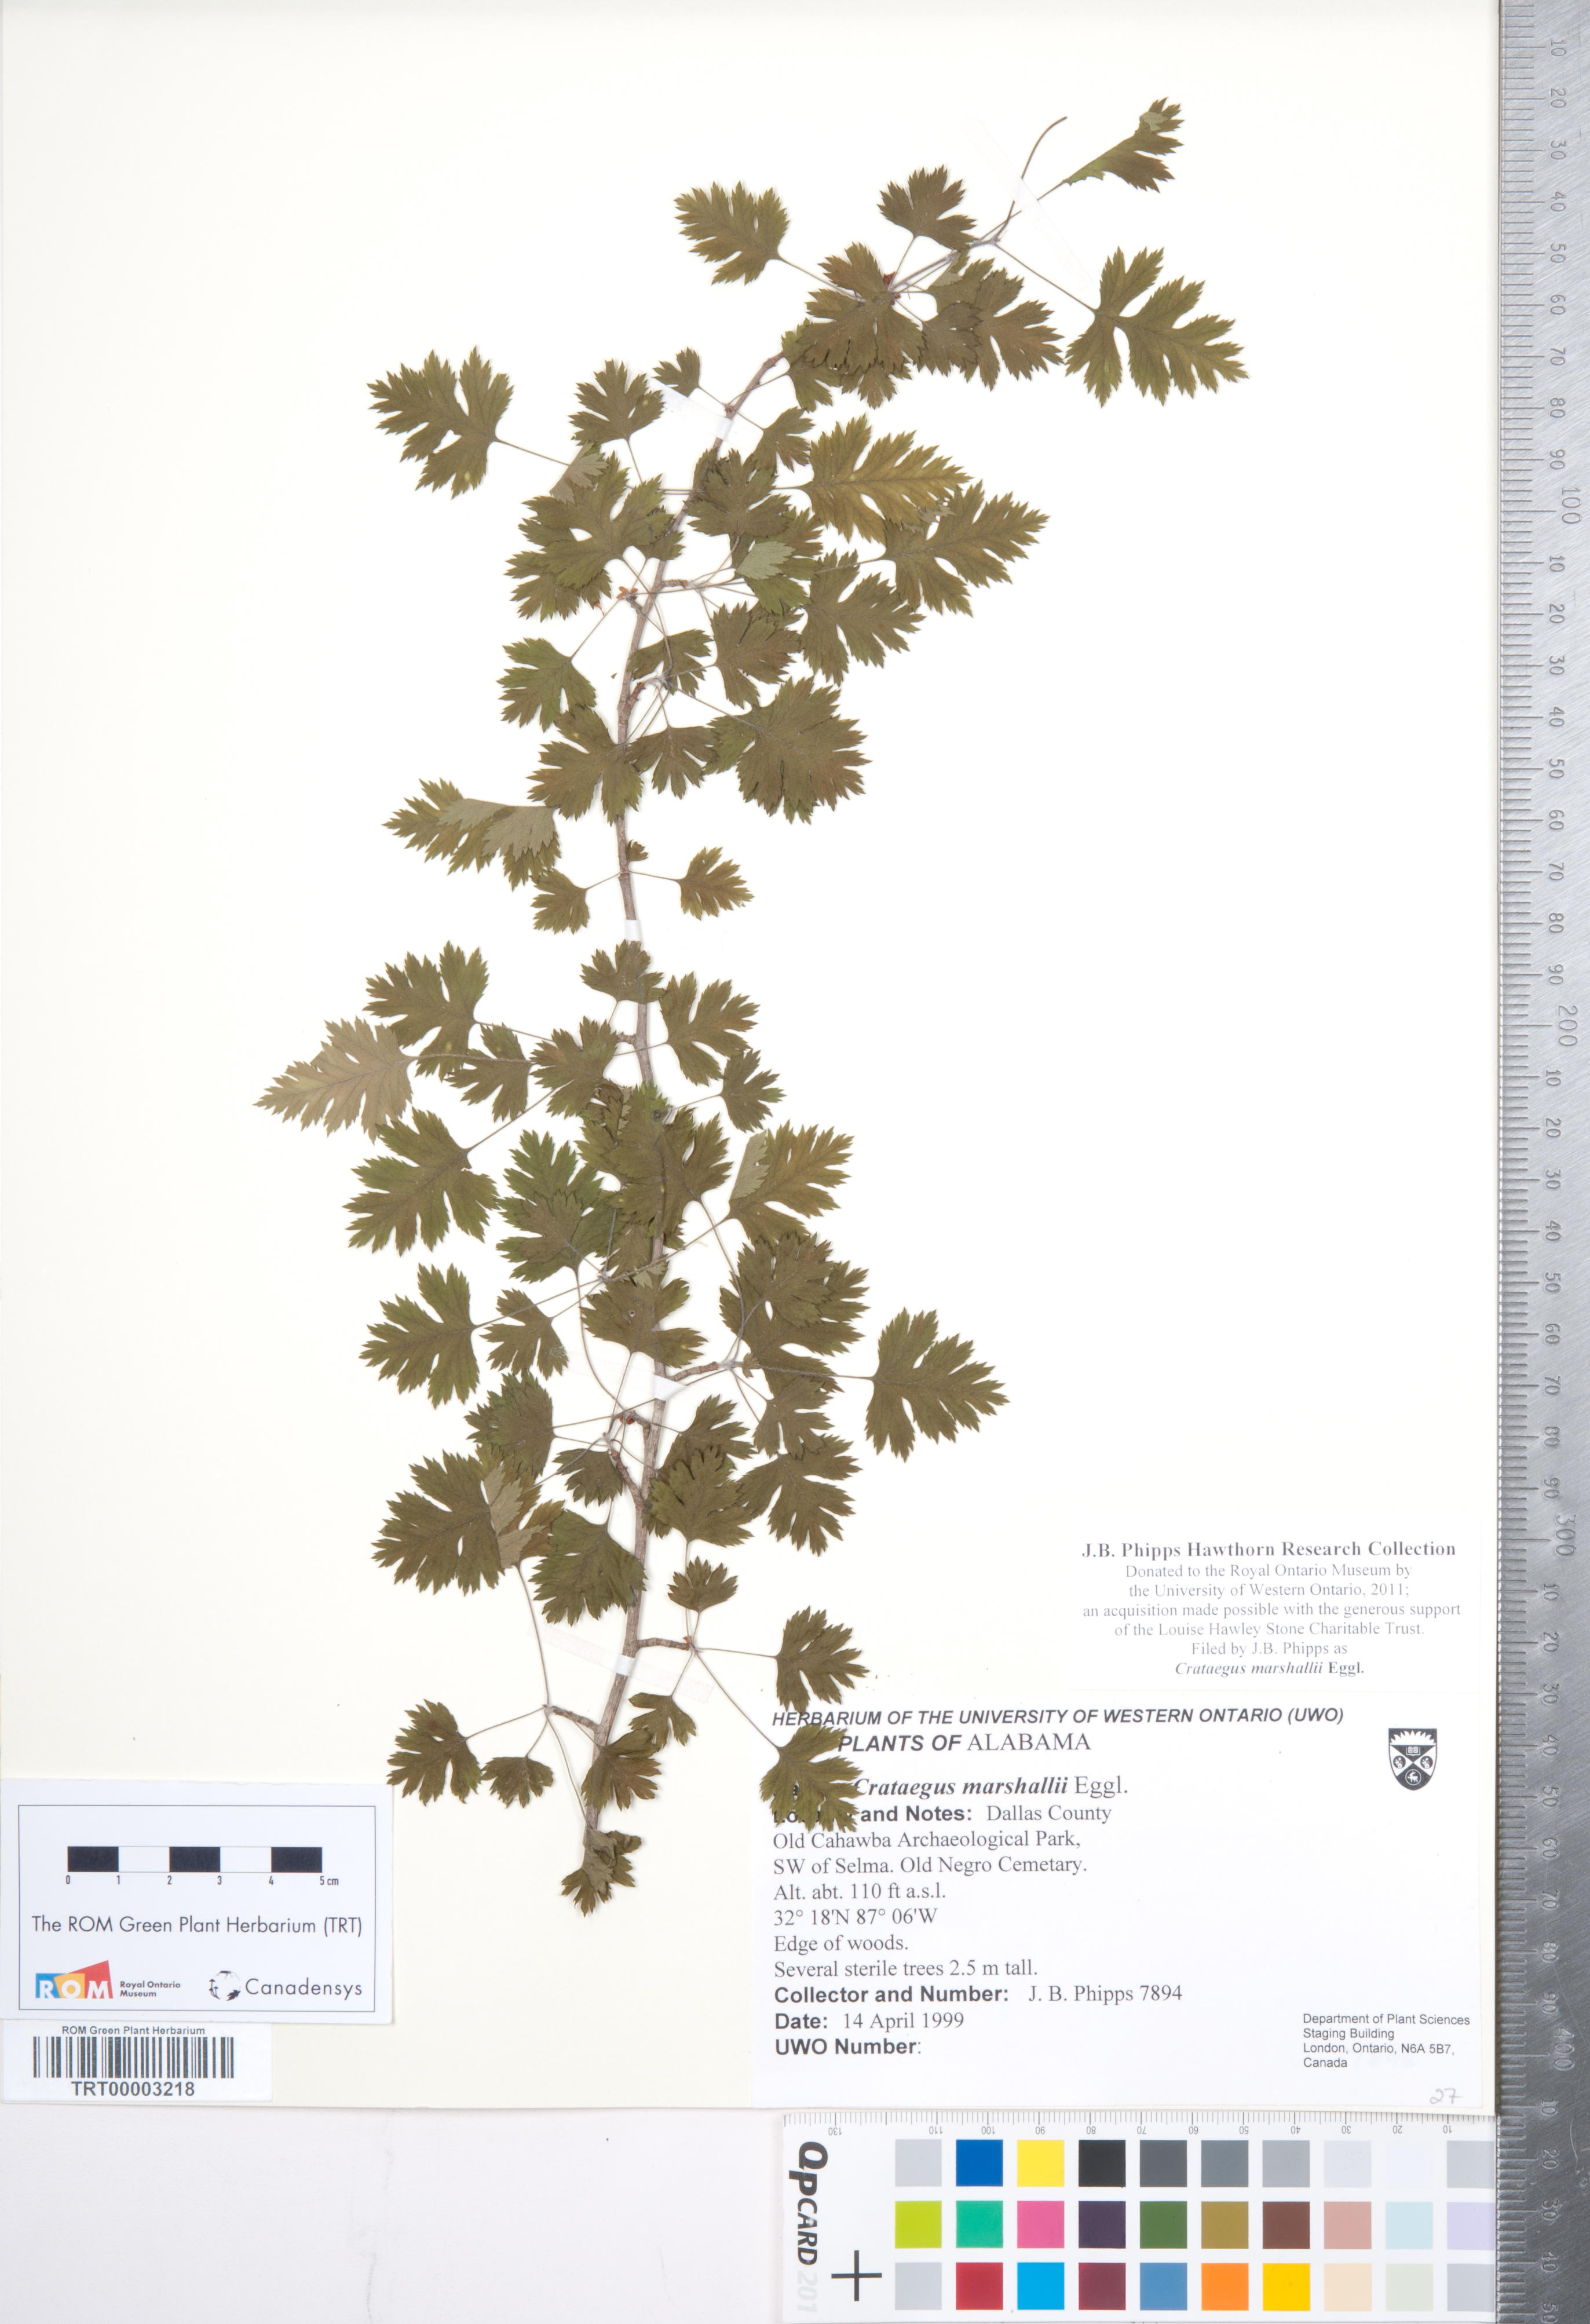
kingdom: Plantae
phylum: Tracheophyta
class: Magnoliopsida
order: Rosales
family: Rosaceae
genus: Crataegus
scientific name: Crataegus marshallii
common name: Parsley-hawthorn
